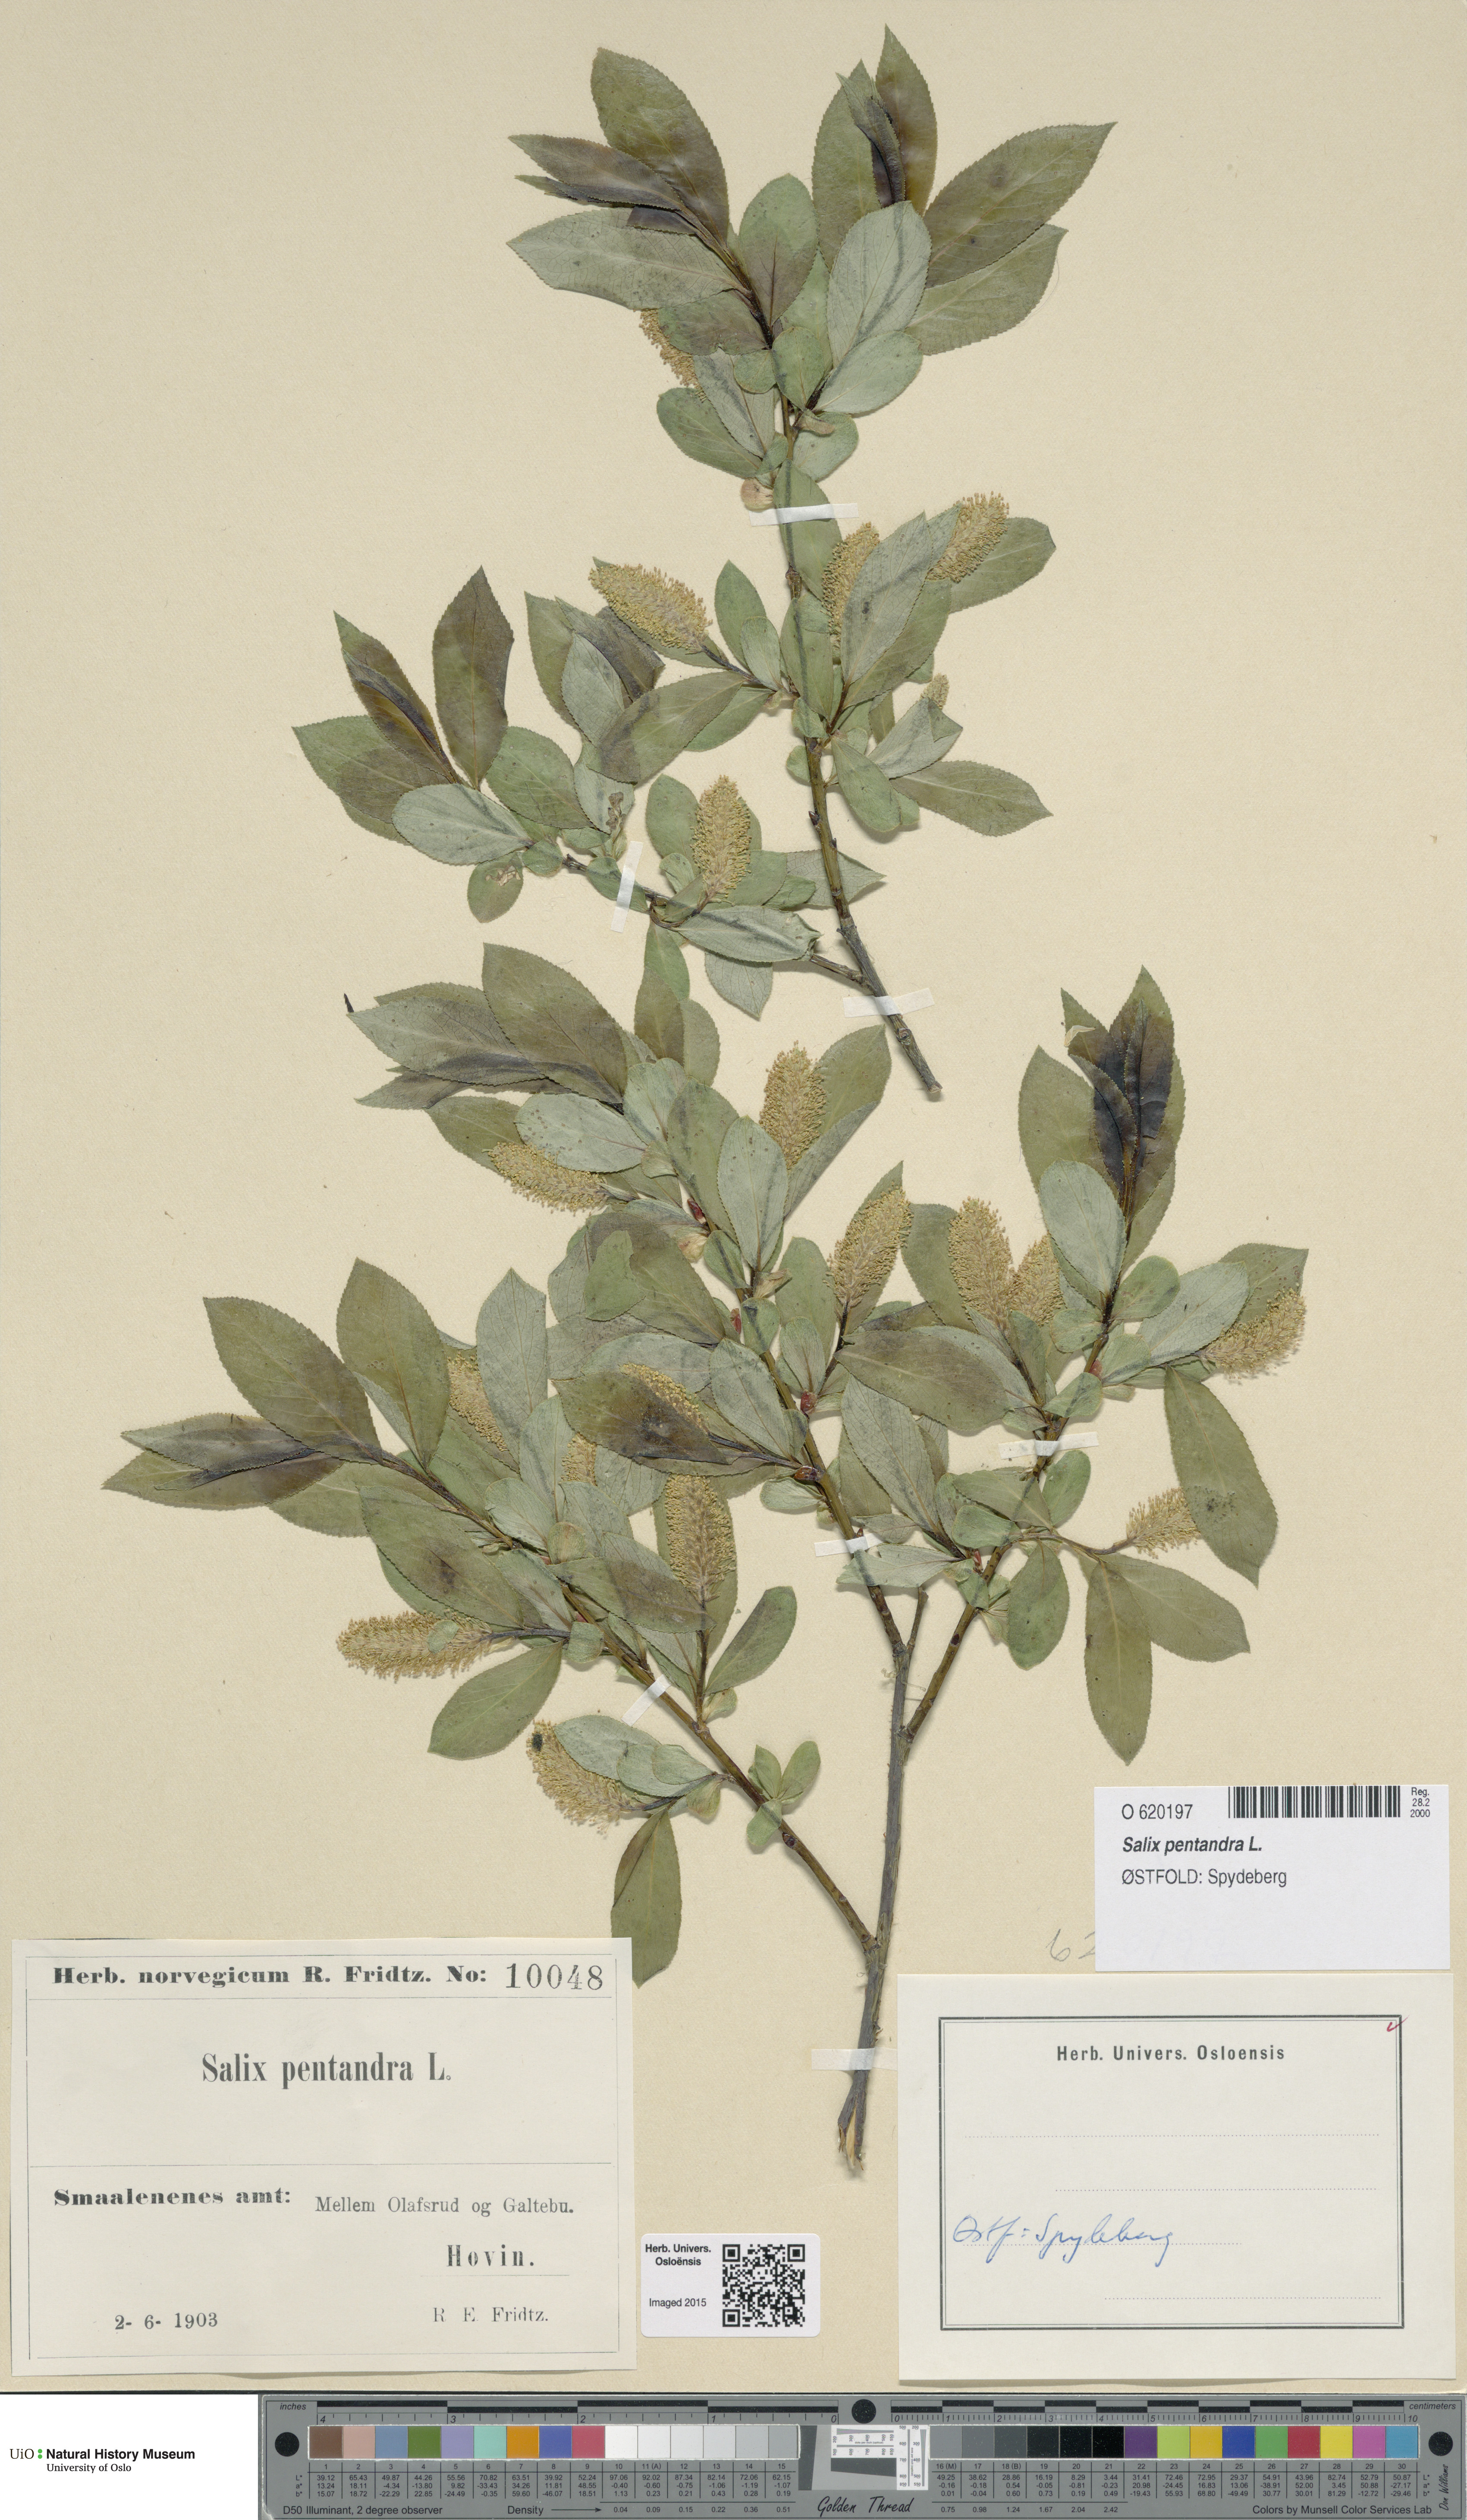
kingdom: Plantae
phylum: Tracheophyta
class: Magnoliopsida
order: Malpighiales
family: Salicaceae
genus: Salix
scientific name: Salix pentandra
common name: Bay willow
